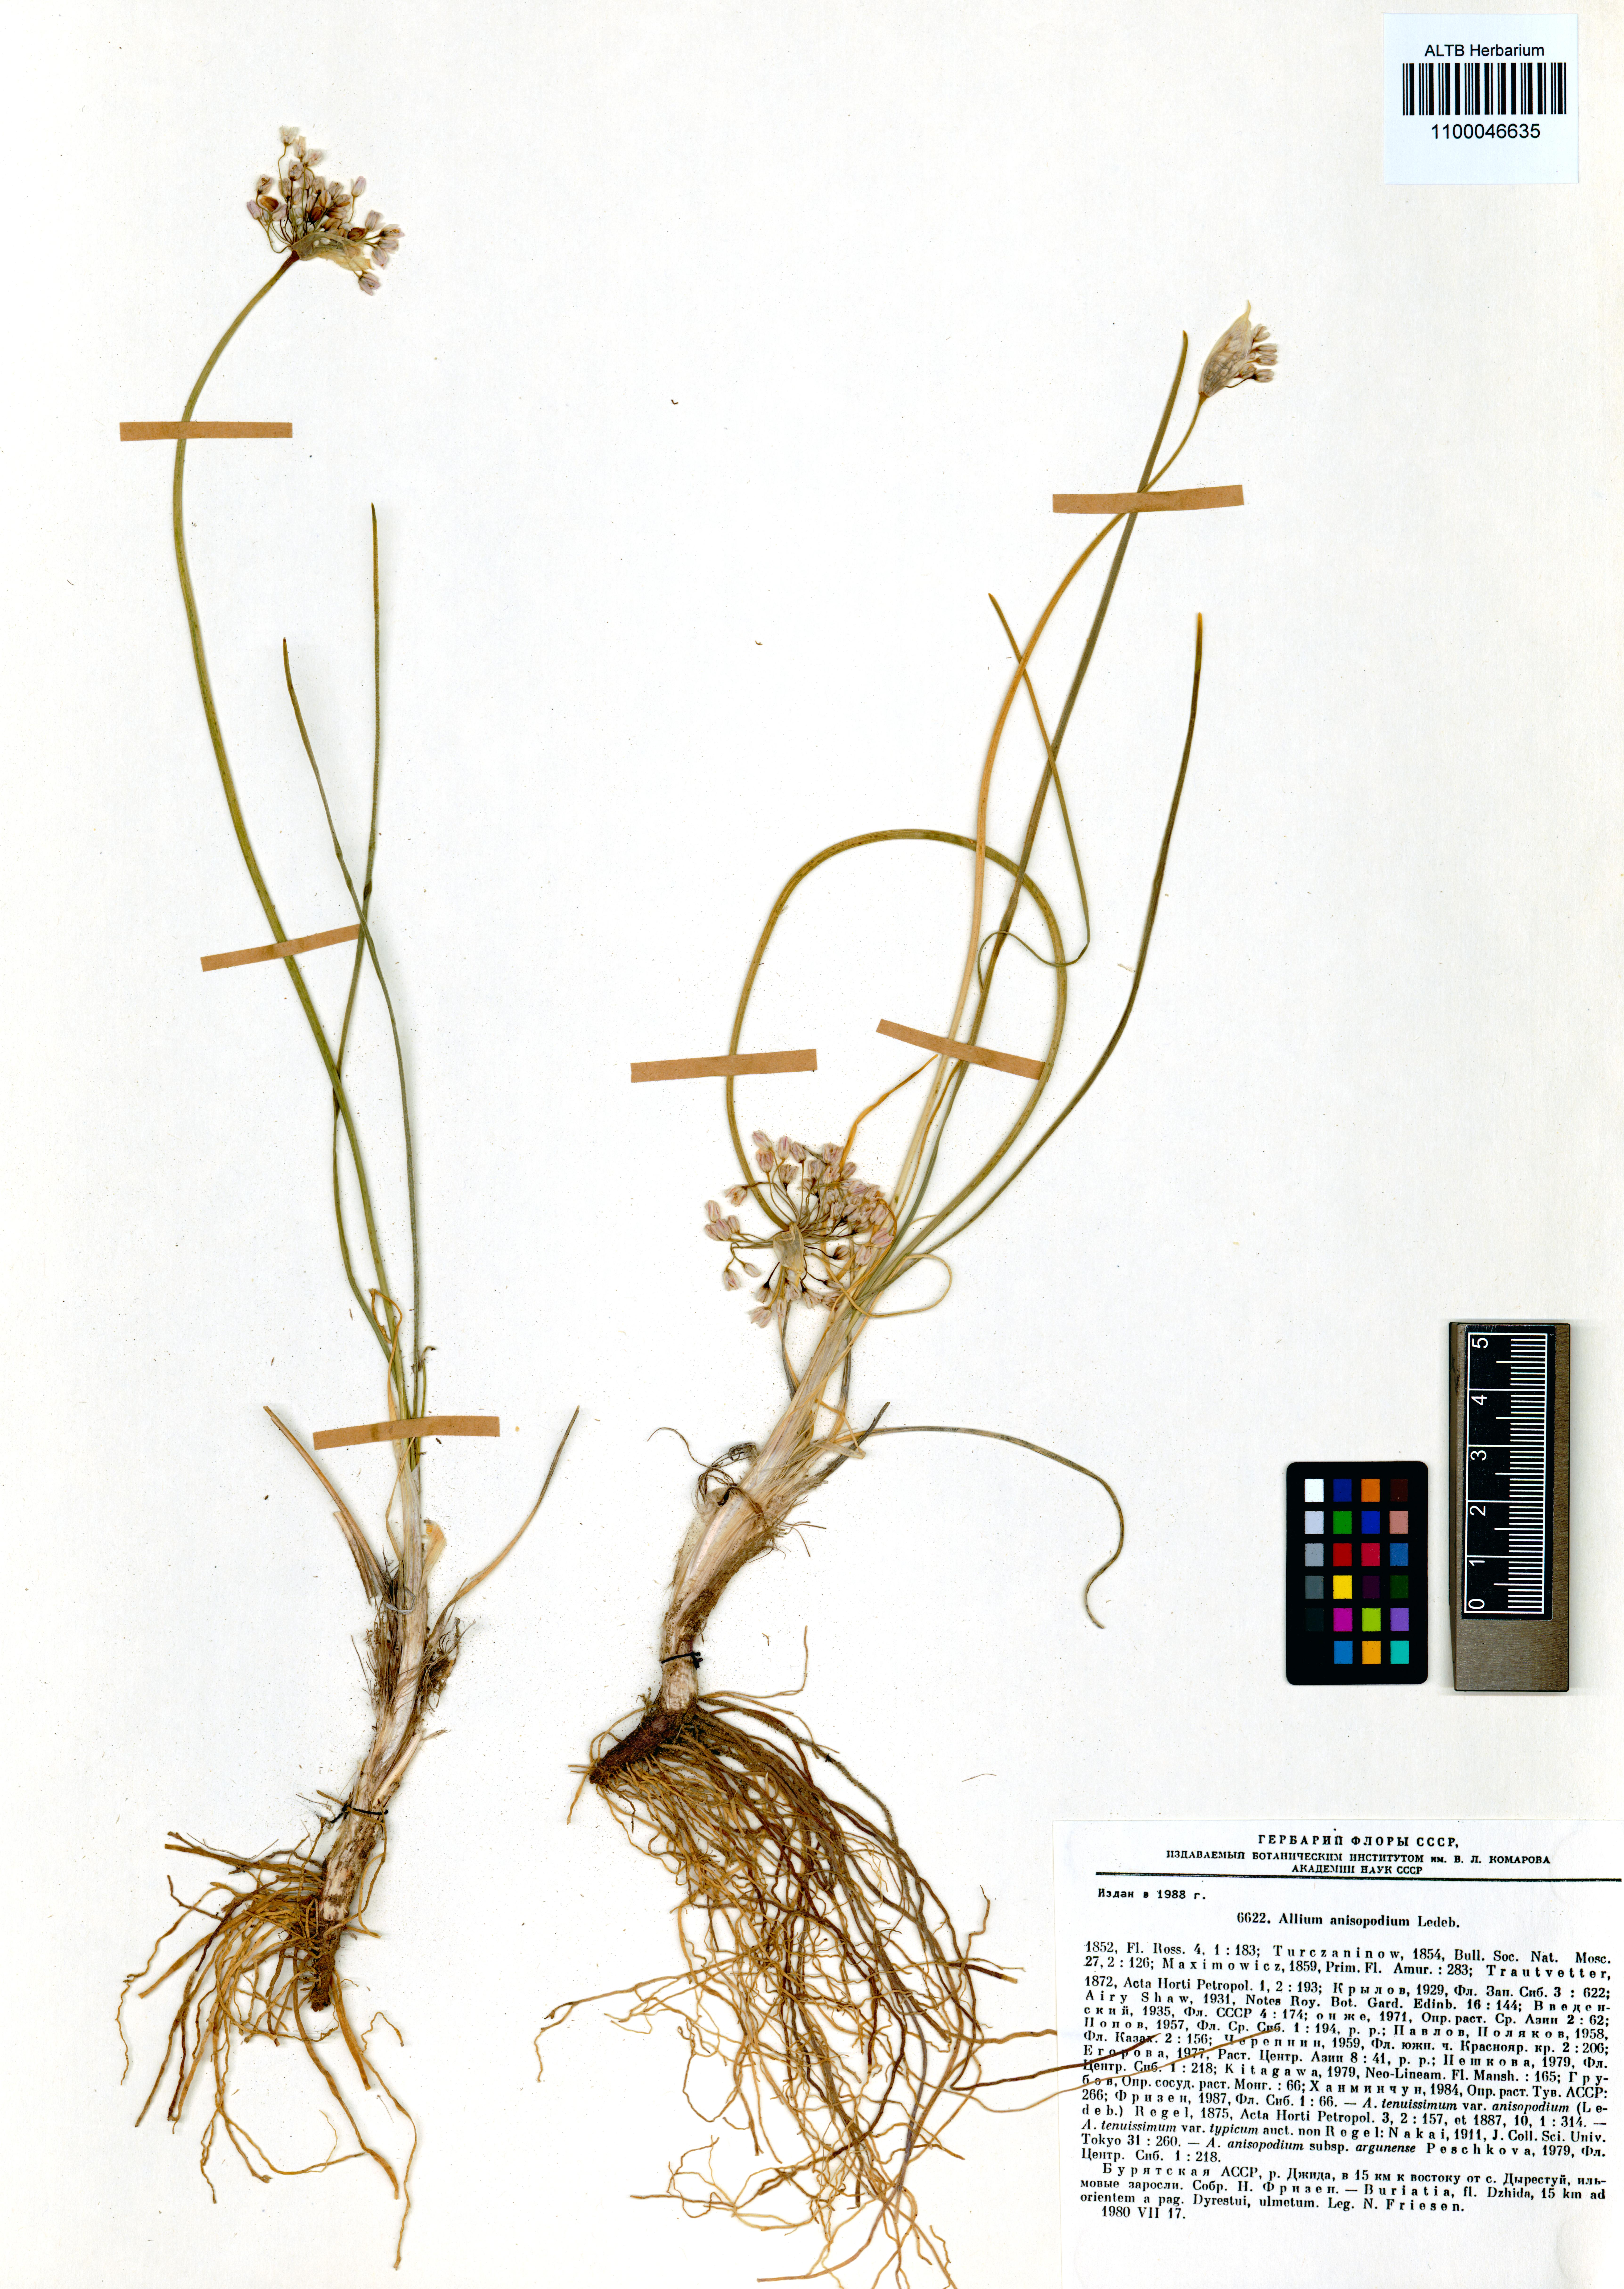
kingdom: Plantae
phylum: Tracheophyta
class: Liliopsida
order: Asparagales
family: Amaryllidaceae
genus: Allium
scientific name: Allium anisopodium
